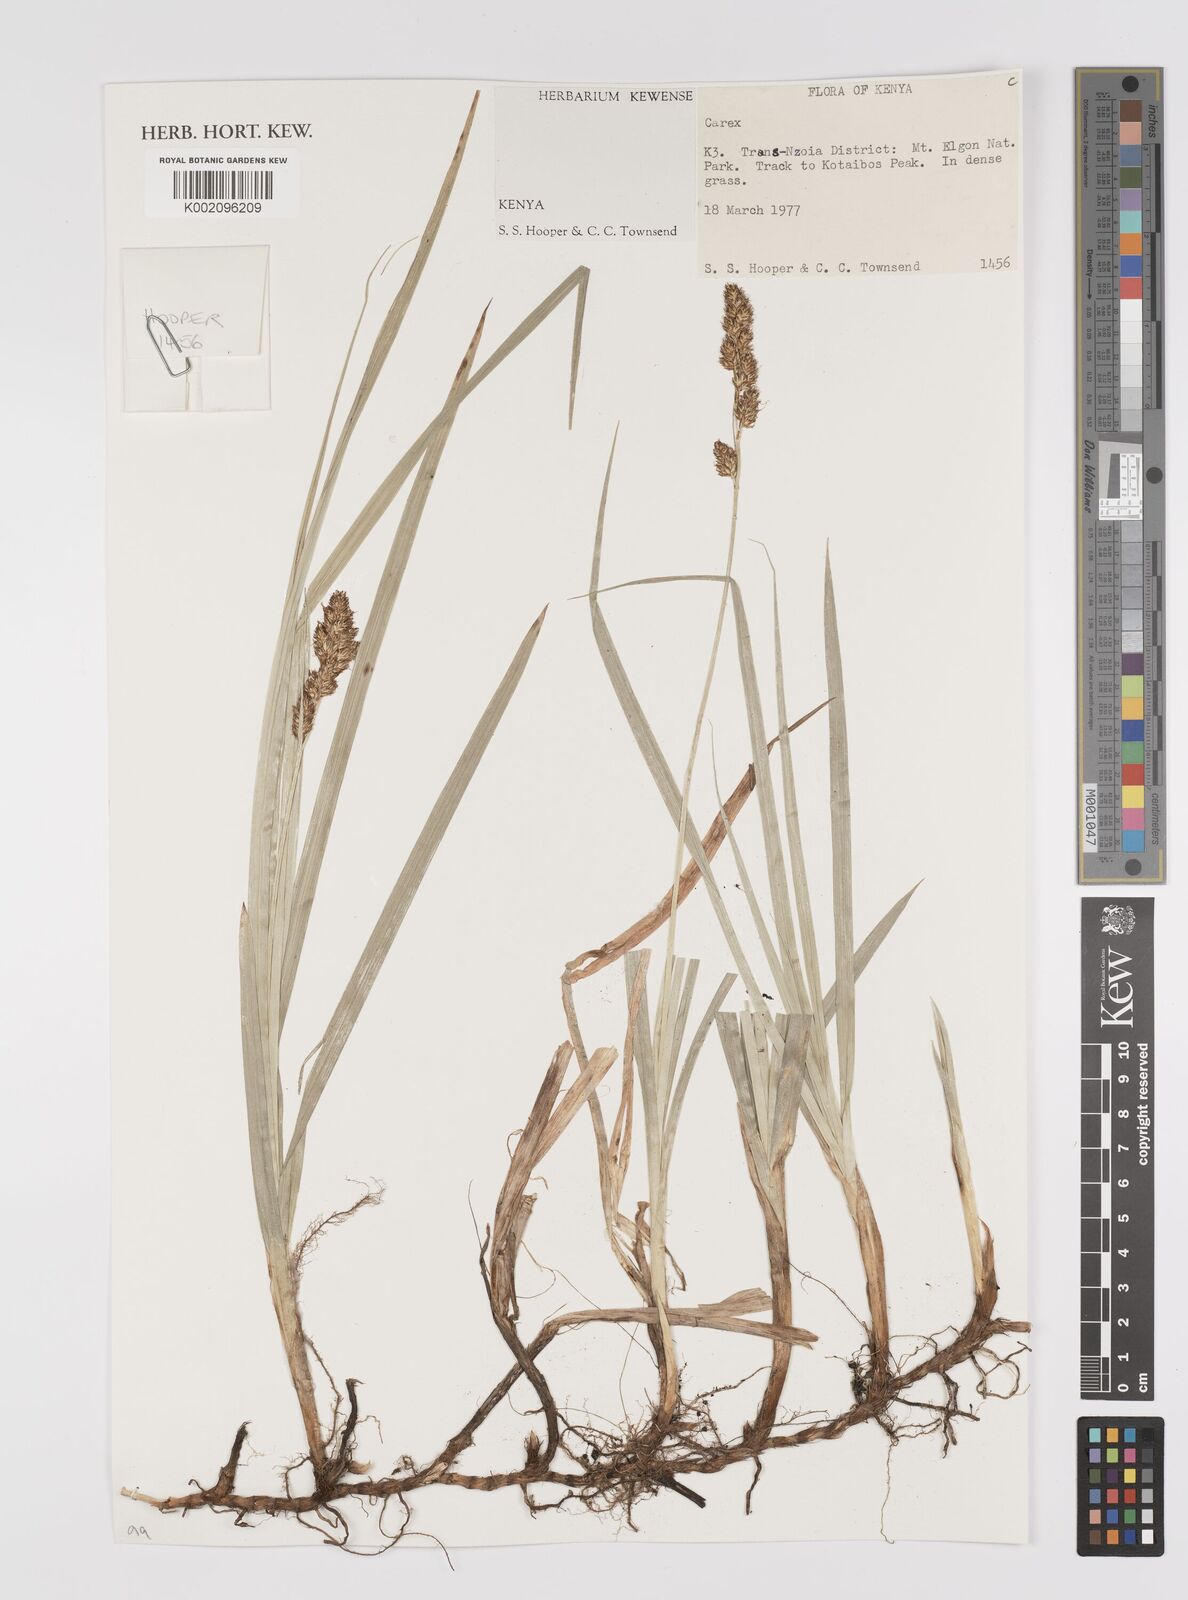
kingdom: Plantae
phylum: Tracheophyta
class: Liliopsida
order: Poales
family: Cyperaceae
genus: Carex
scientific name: Carex
